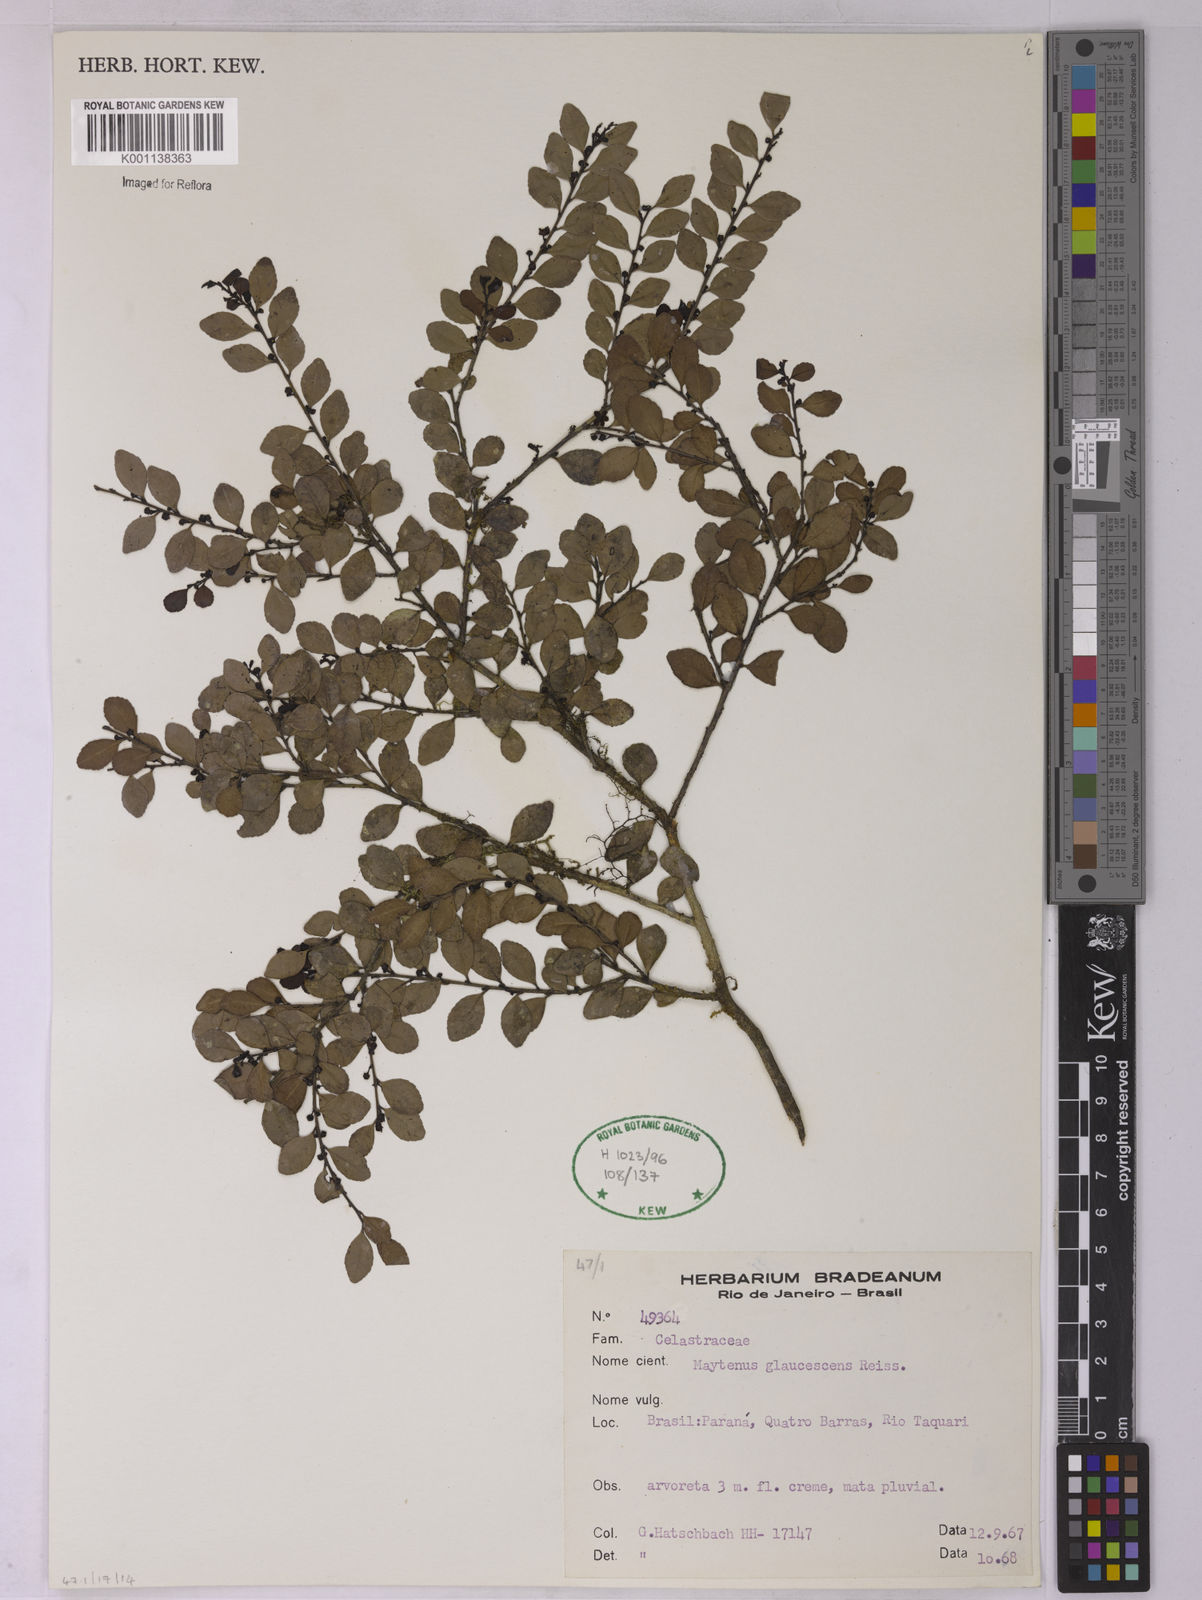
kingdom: Plantae
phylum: Tracheophyta
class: Magnoliopsida
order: Celastrales
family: Celastraceae
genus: Monteverdia
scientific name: Monteverdia glaucescens
